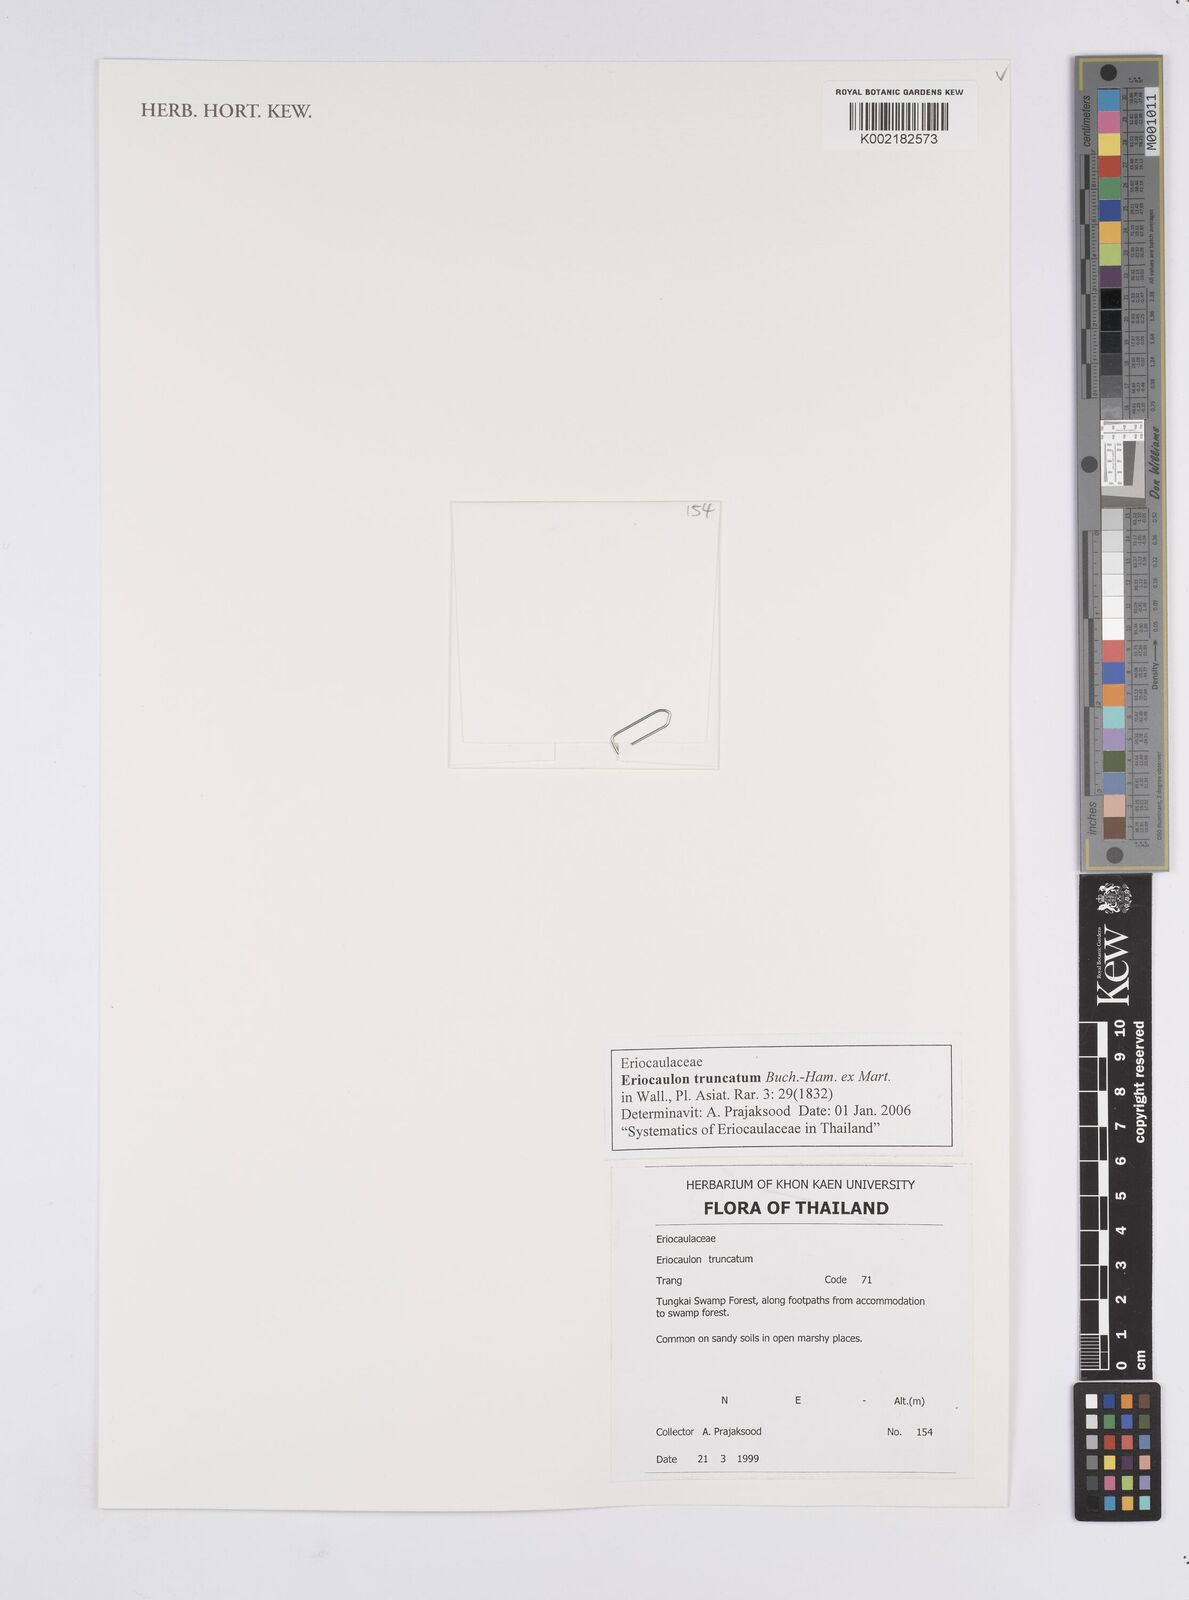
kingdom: Plantae
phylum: Tracheophyta
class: Liliopsida
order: Poales
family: Eriocaulaceae
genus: Eriocaulon
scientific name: Eriocaulon truncatum
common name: Short pipe-wort
